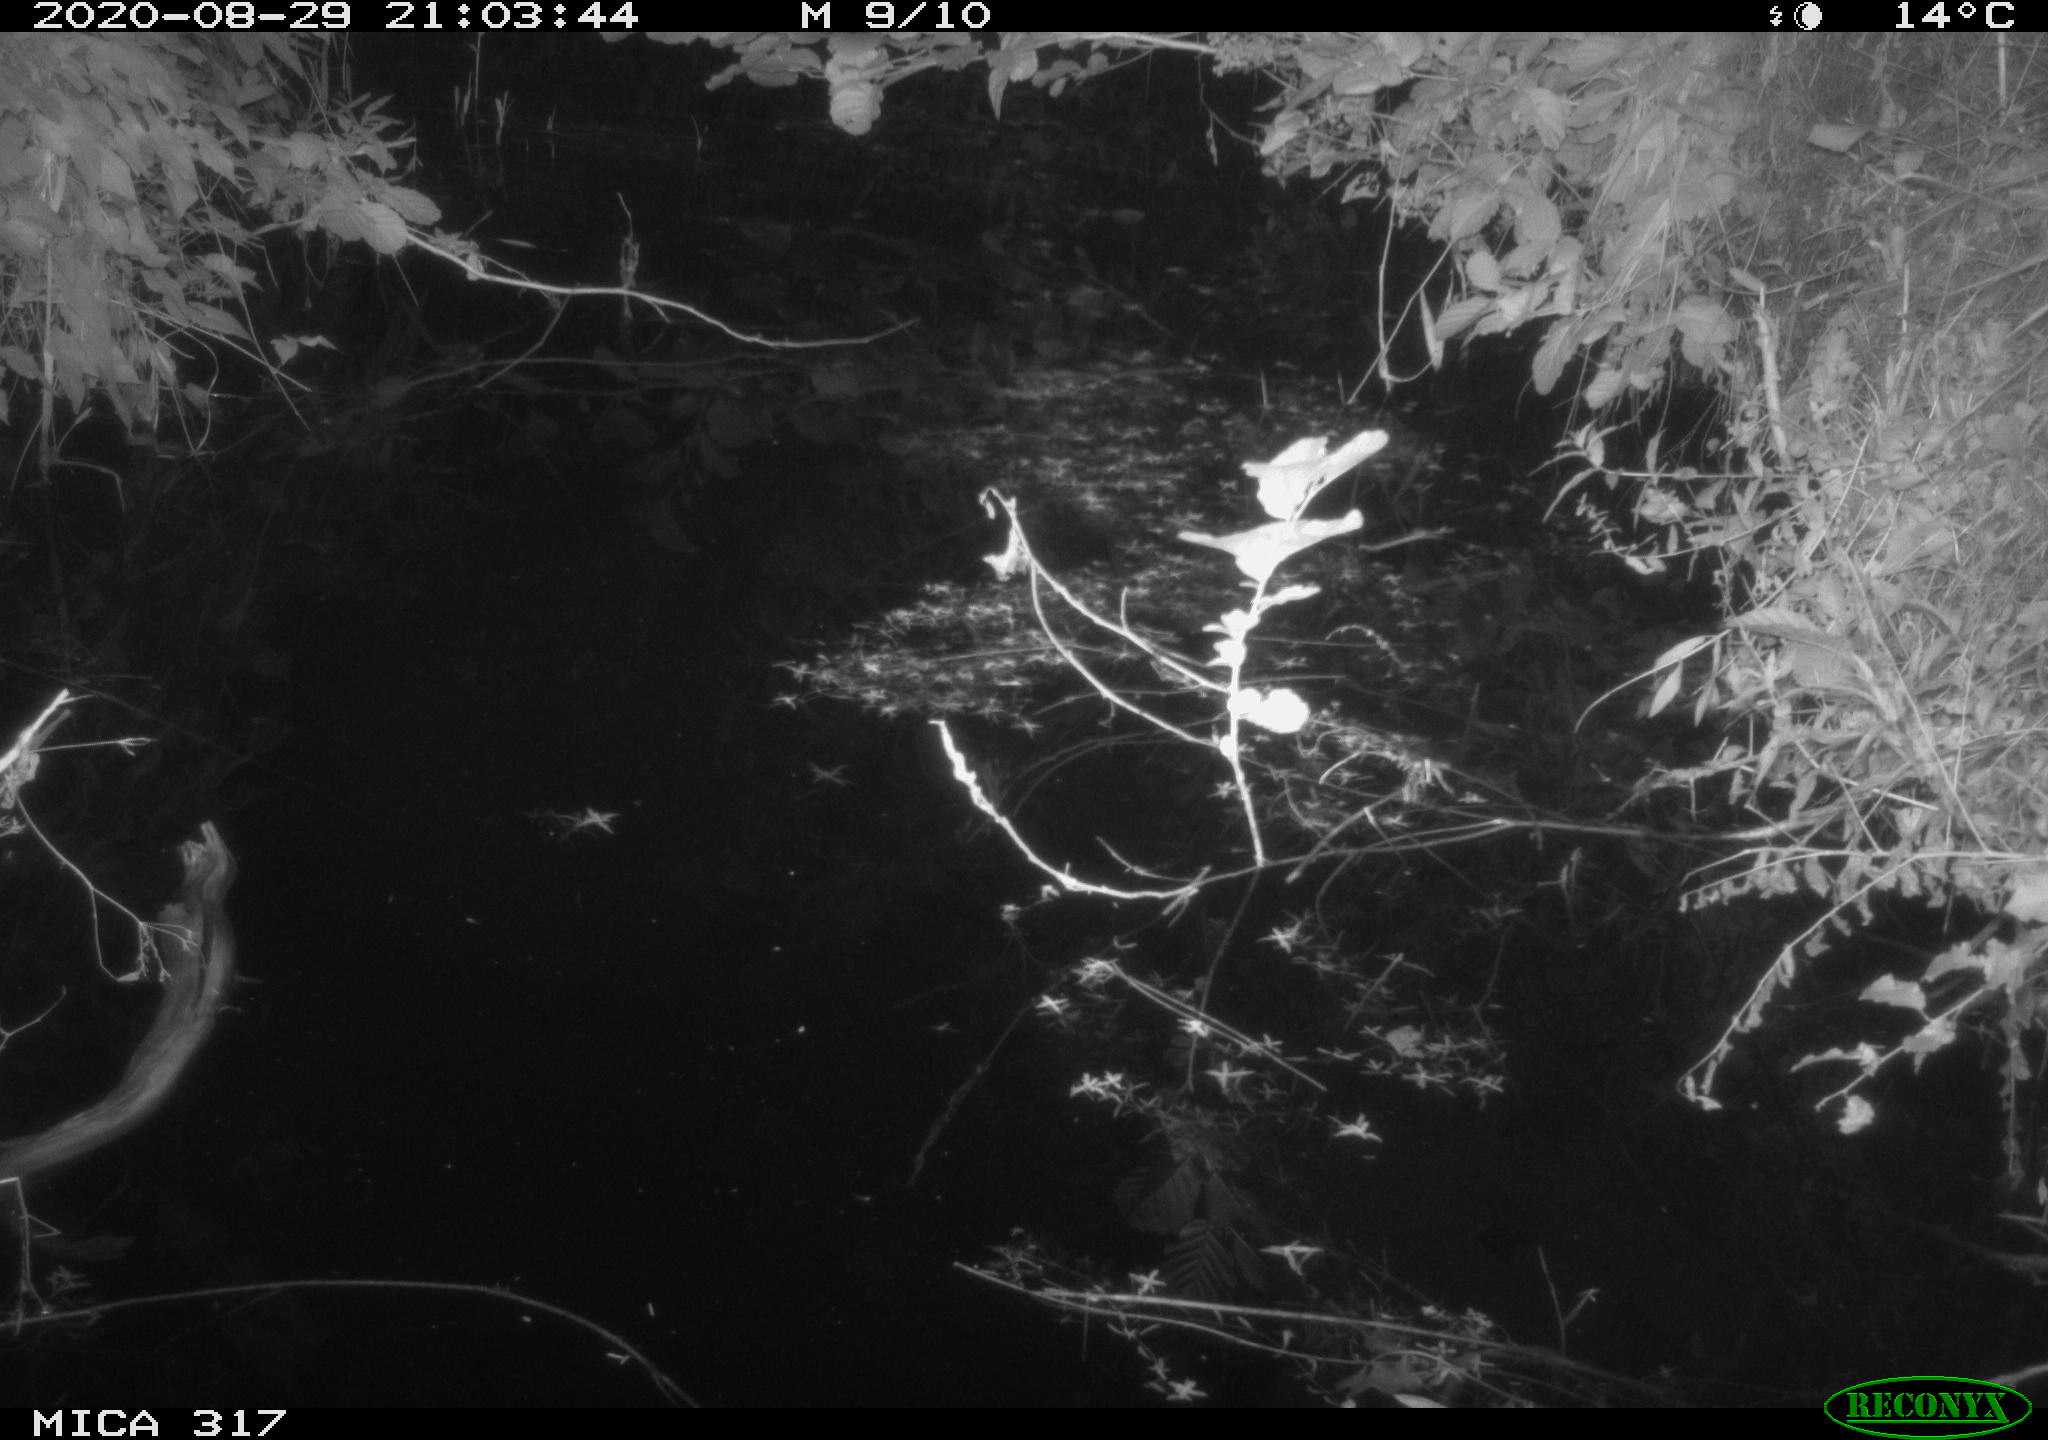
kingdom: Animalia
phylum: Chordata
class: Aves
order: Anseriformes
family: Anatidae
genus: Anas
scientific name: Anas platyrhynchos
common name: Mallard
